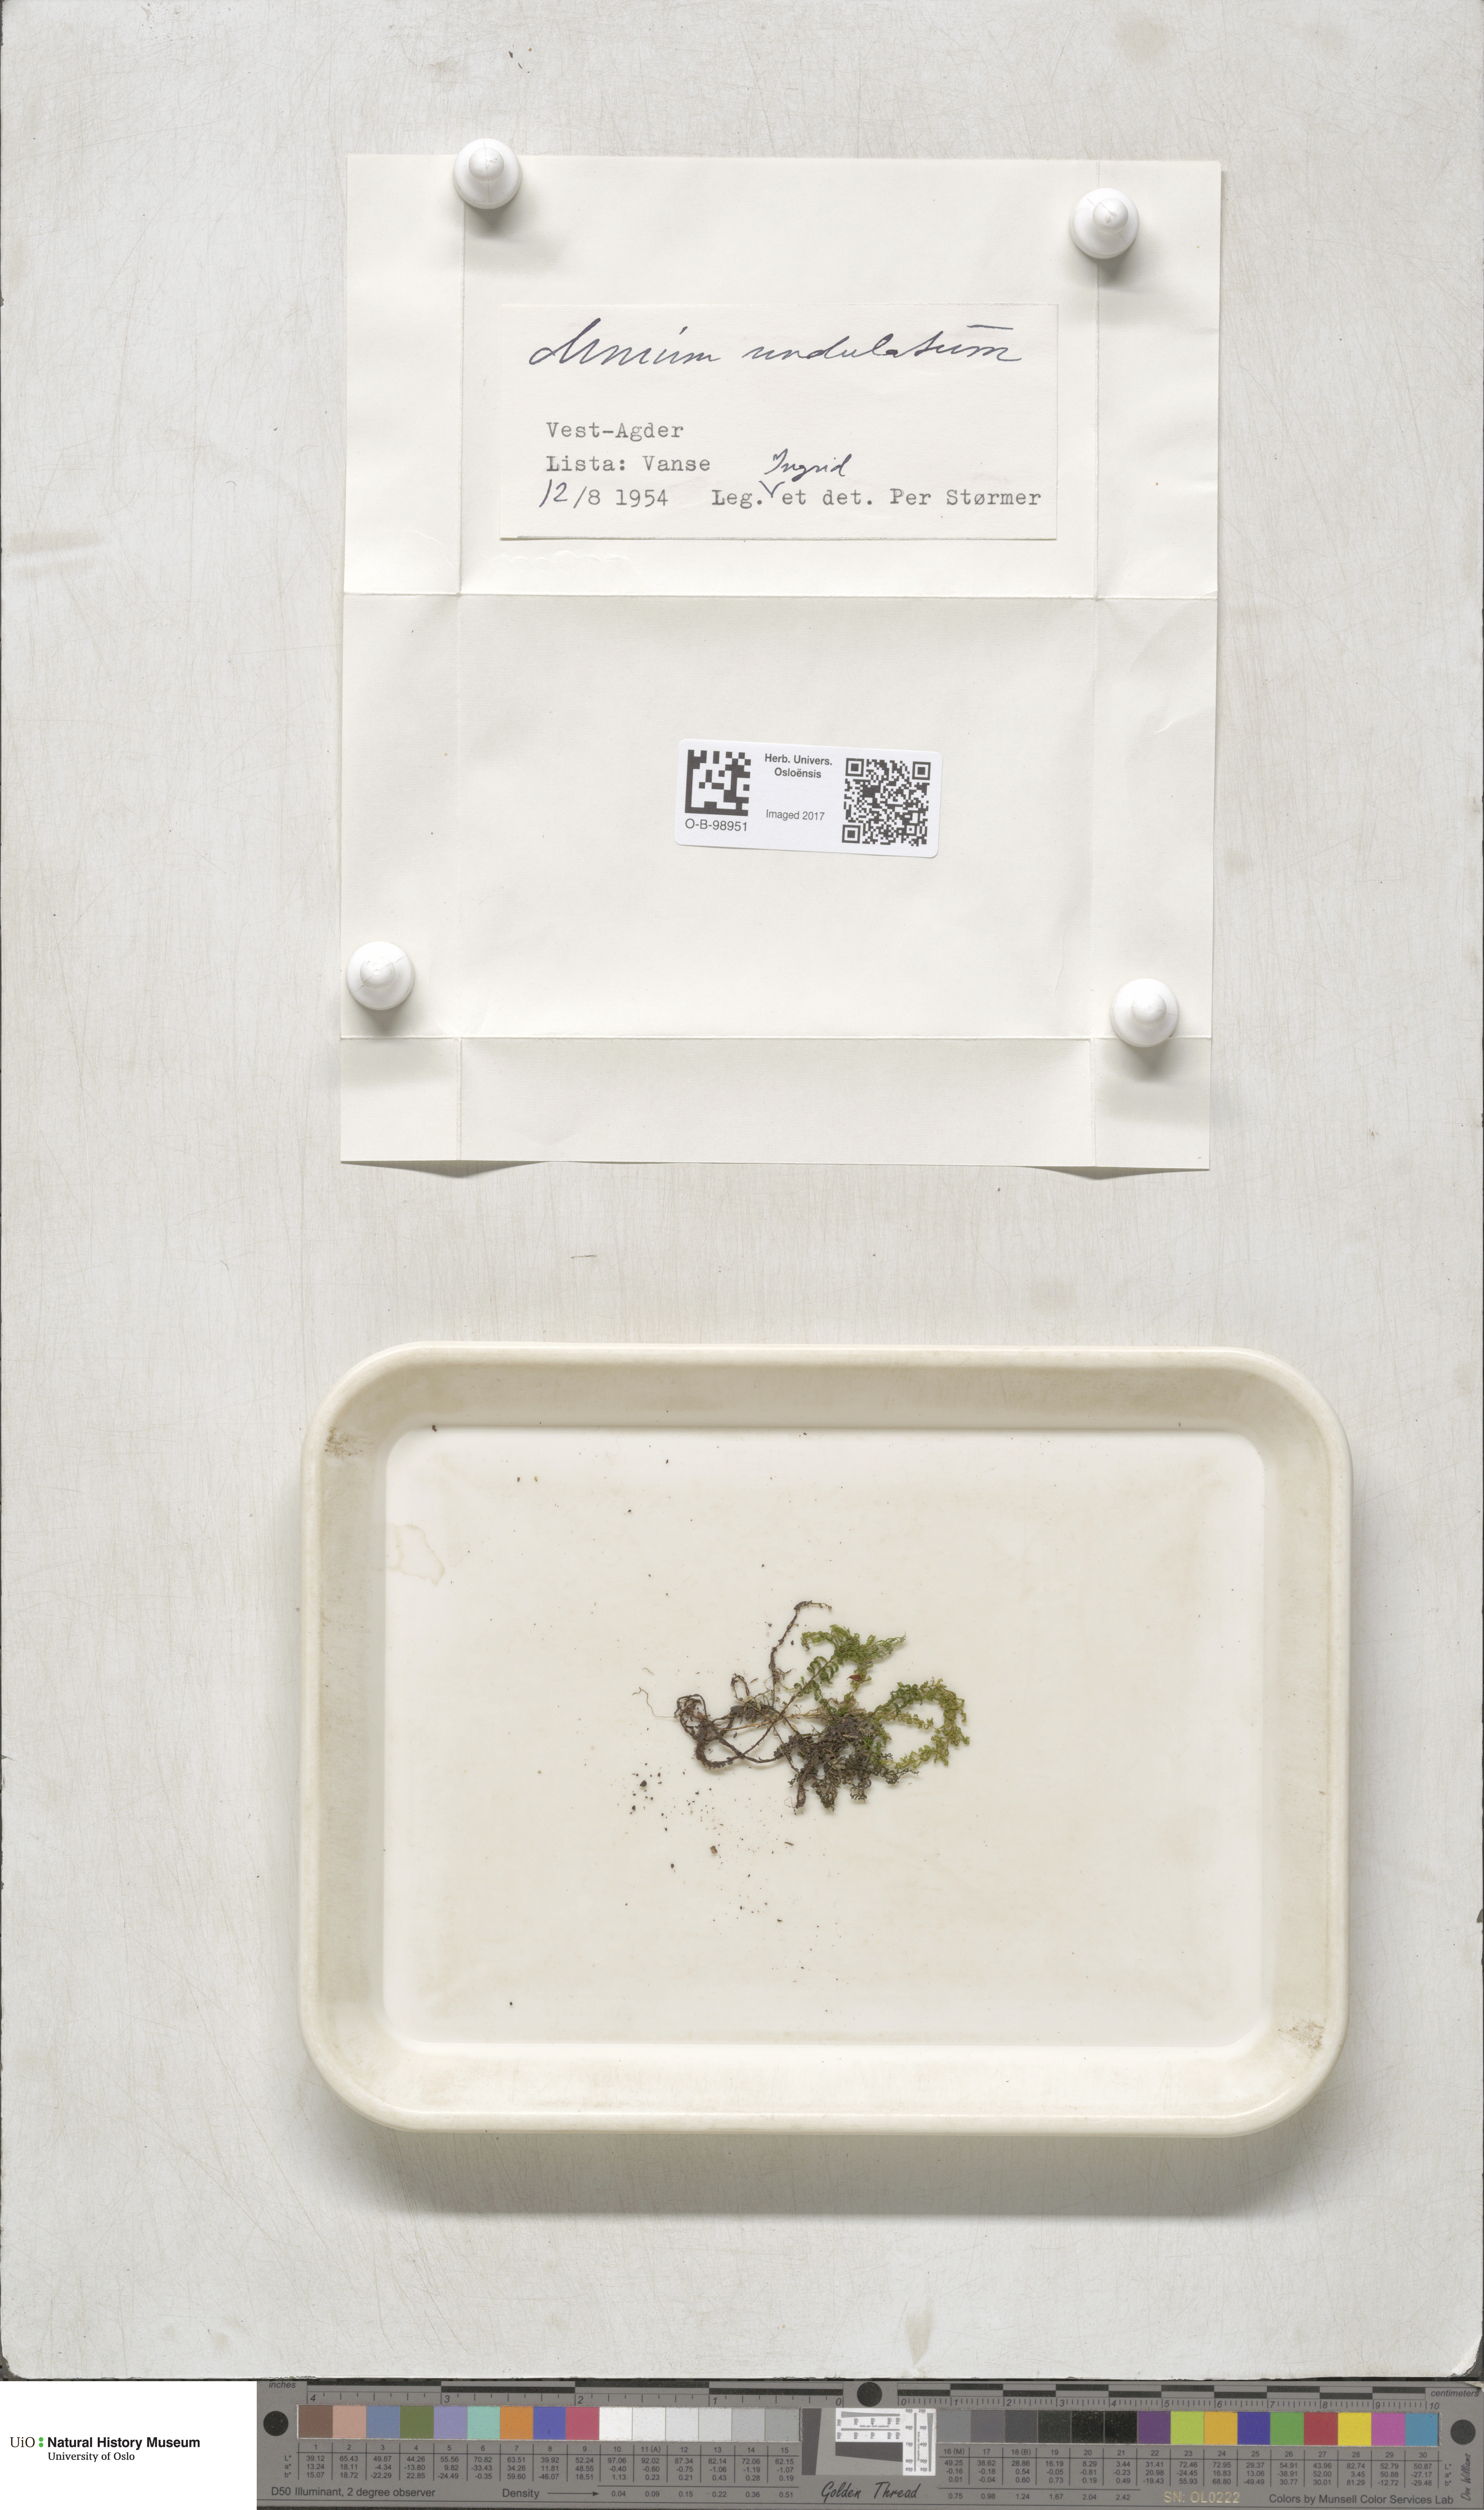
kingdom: Plantae
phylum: Bryophyta
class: Bryopsida
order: Bryales
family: Mniaceae
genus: Plagiomnium
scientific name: Plagiomnium undulatum
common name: Hart's-tongue thyme-moss
